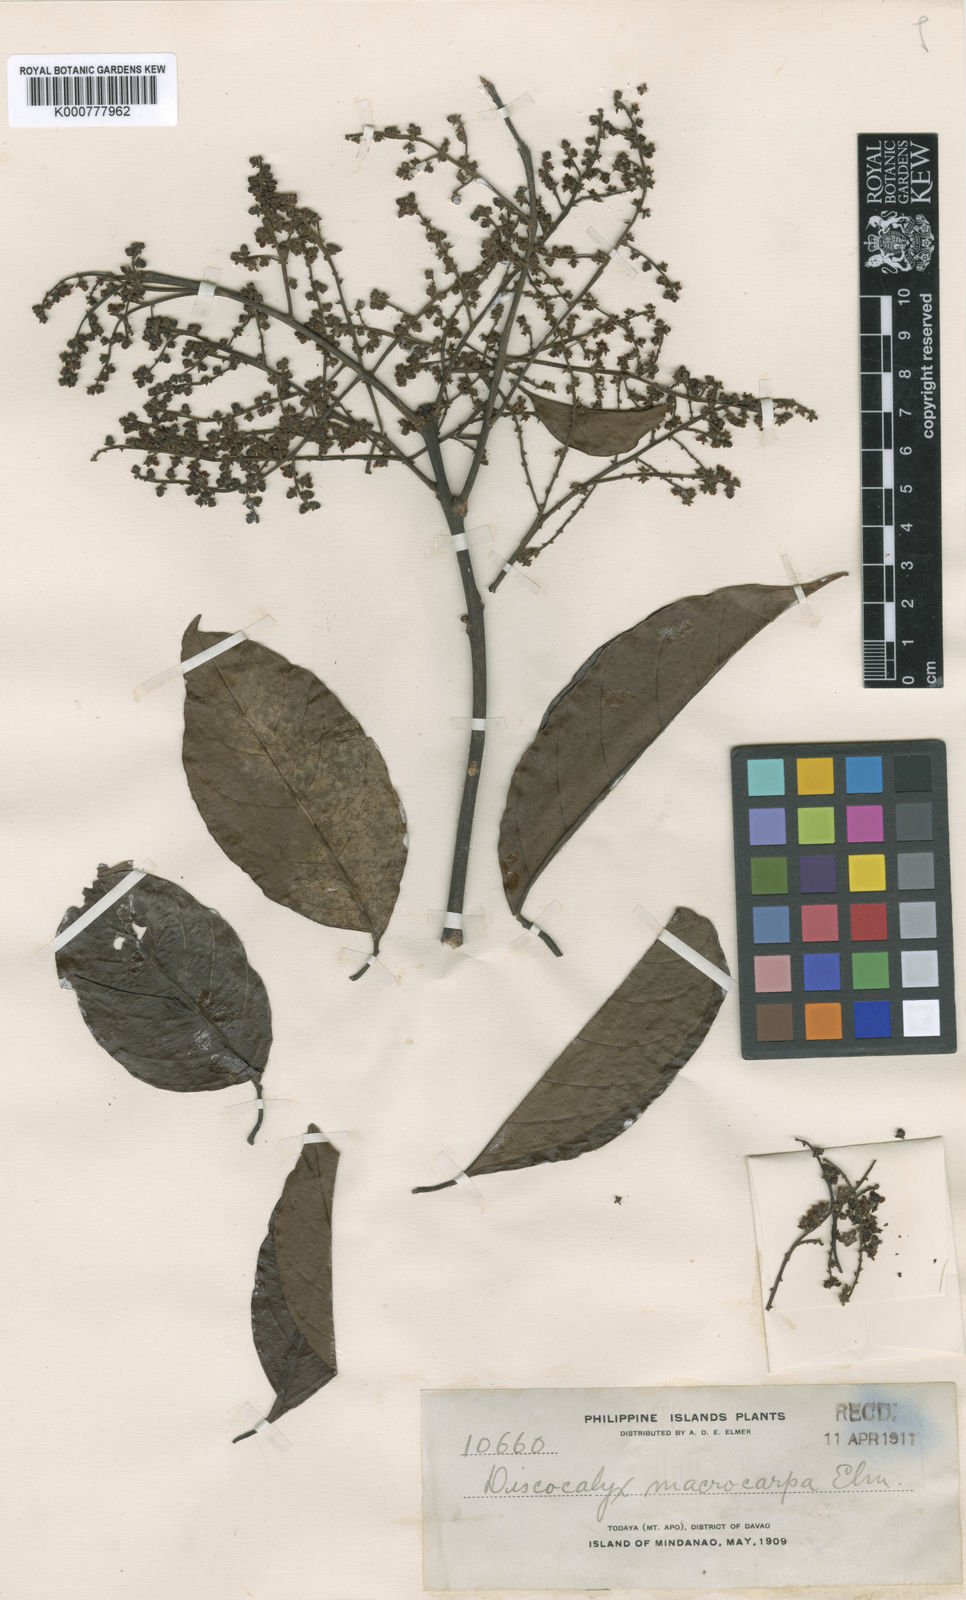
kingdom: Plantae
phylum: Tracheophyta
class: Magnoliopsida
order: Ericales
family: Sapotaceae
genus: Sarcosperma
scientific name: Sarcosperma
